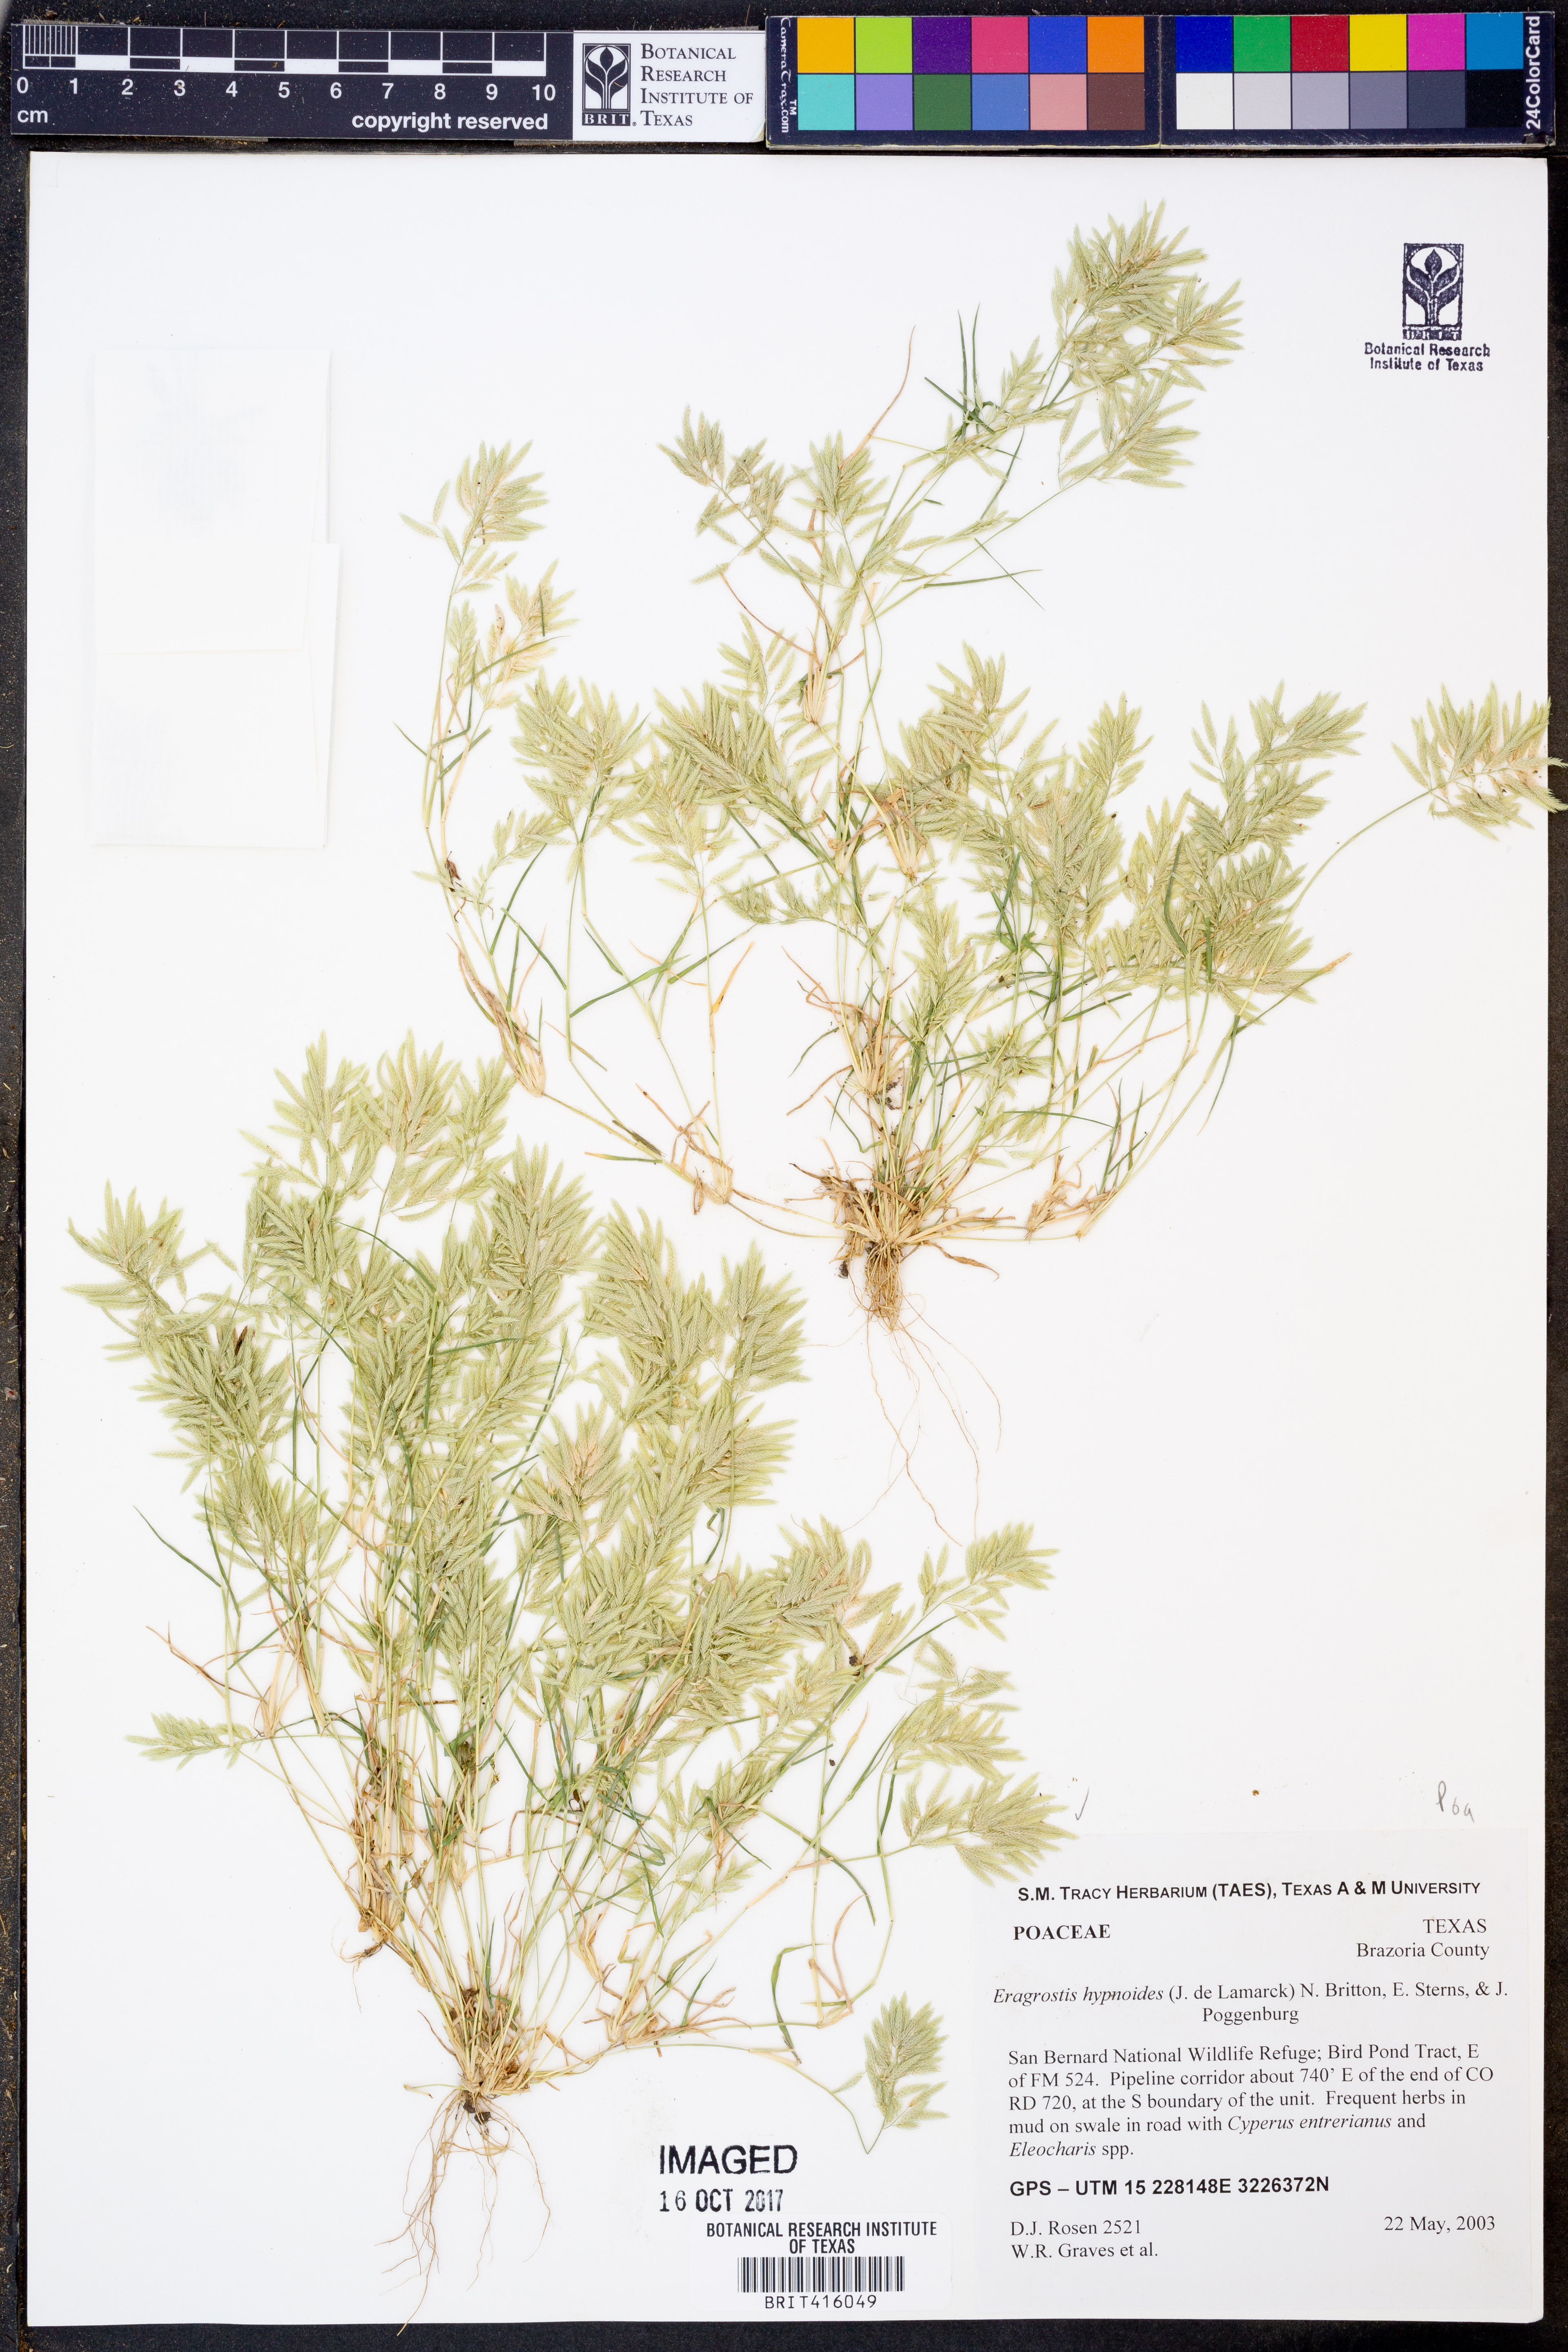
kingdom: Plantae
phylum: Tracheophyta
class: Liliopsida
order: Poales
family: Poaceae
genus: Eragrostis
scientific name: Eragrostis hypnoides
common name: Creeping love grass
